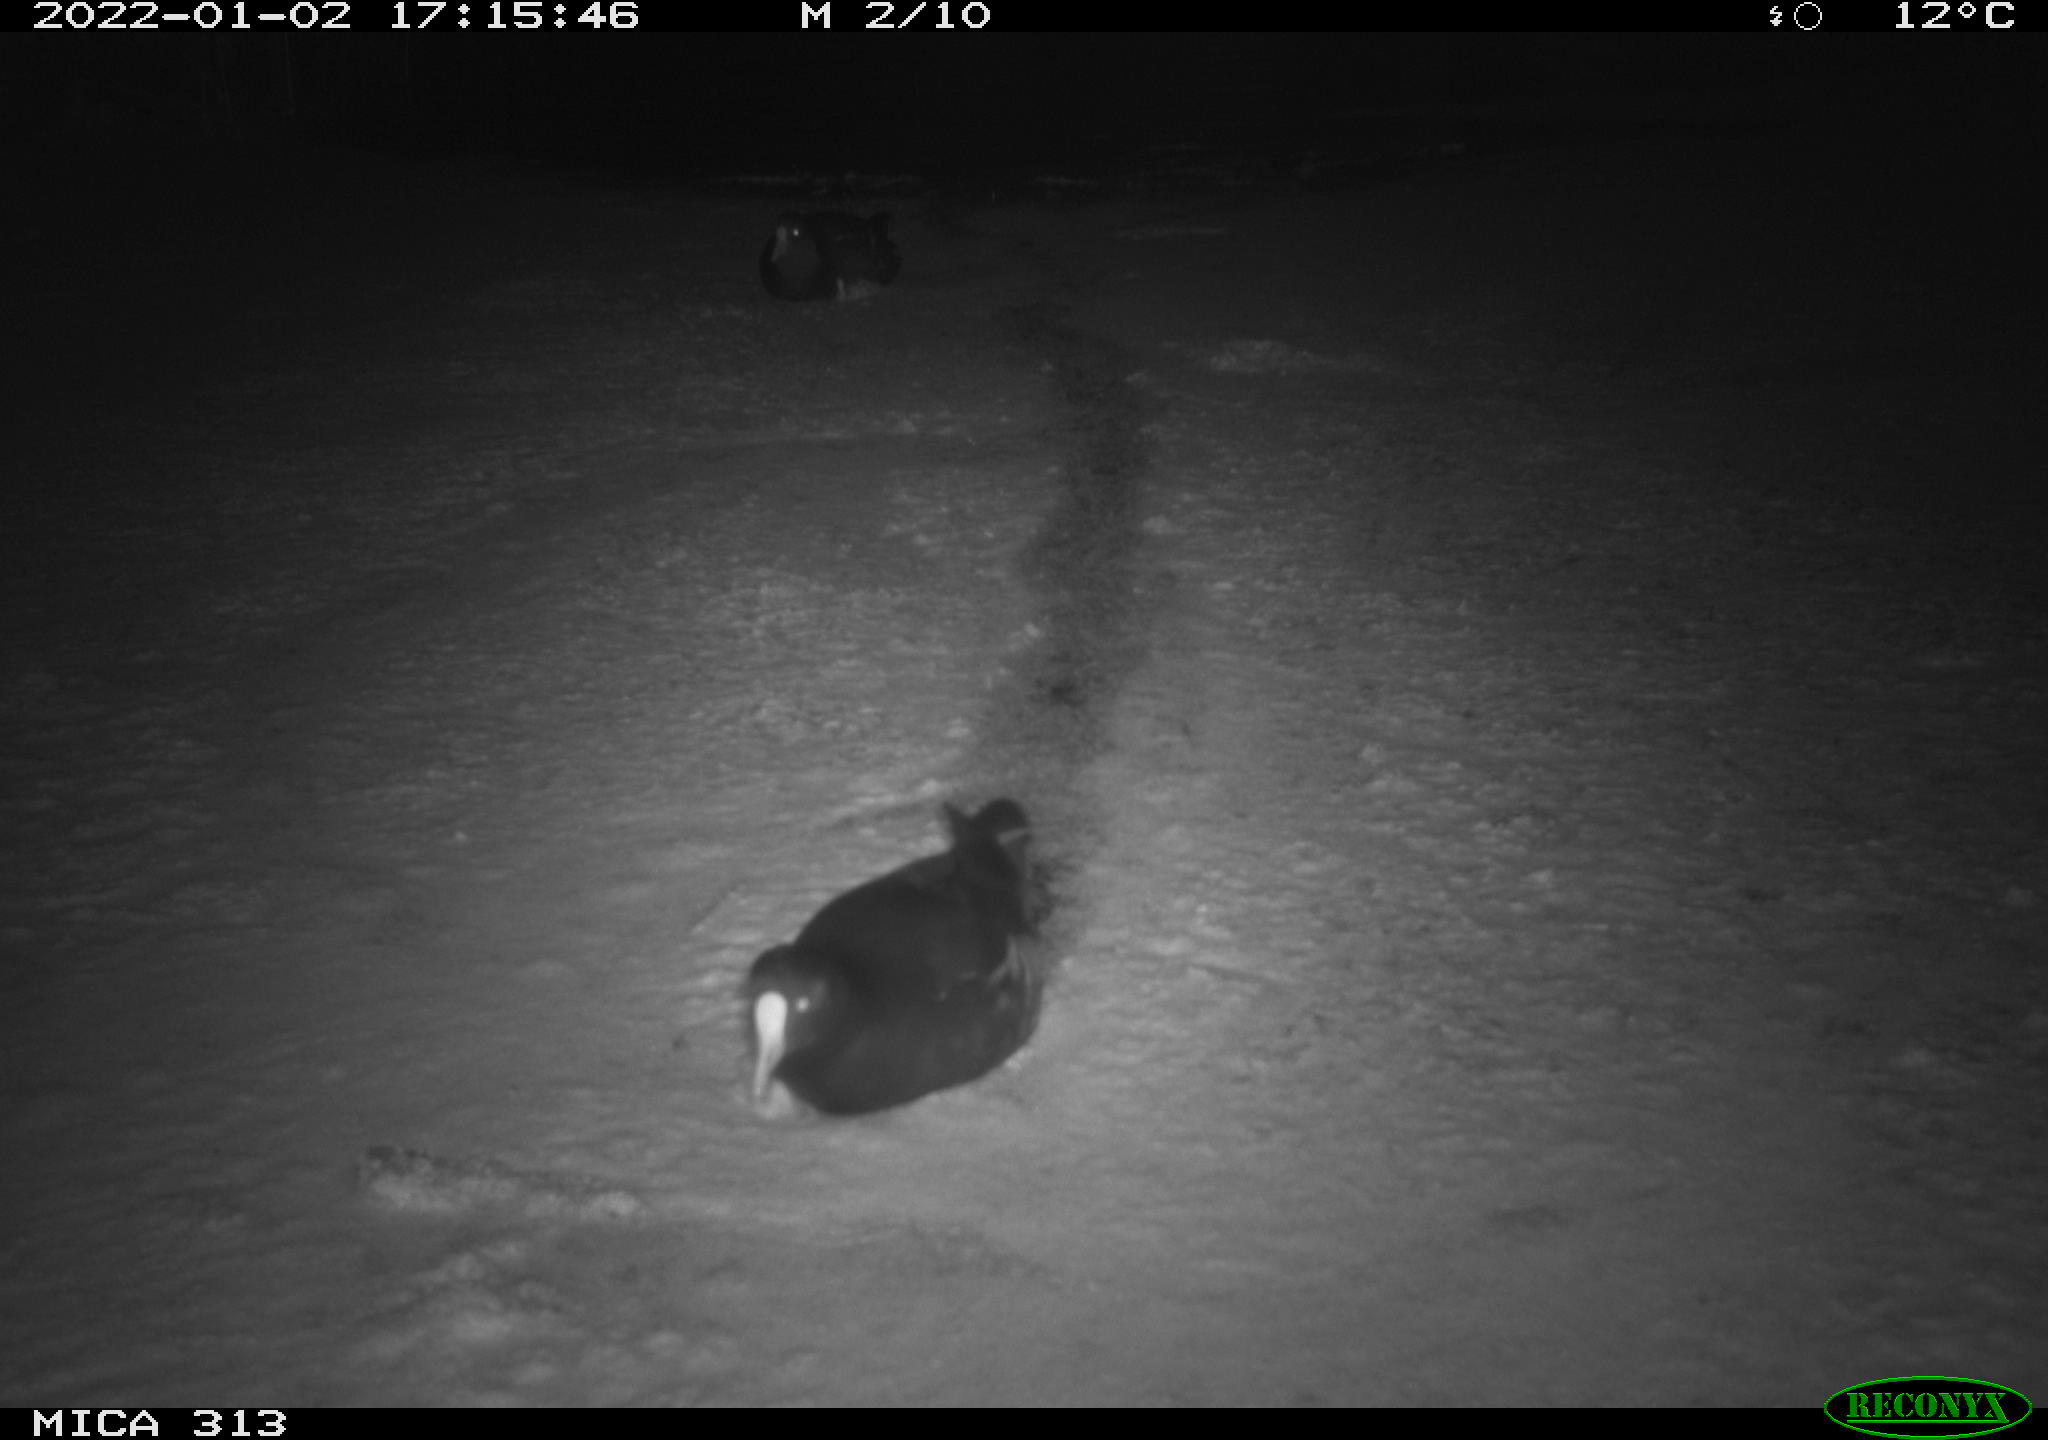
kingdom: Animalia
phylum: Chordata
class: Aves
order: Gruiformes
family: Rallidae
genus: Fulica
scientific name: Fulica atra
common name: Eurasian coot
